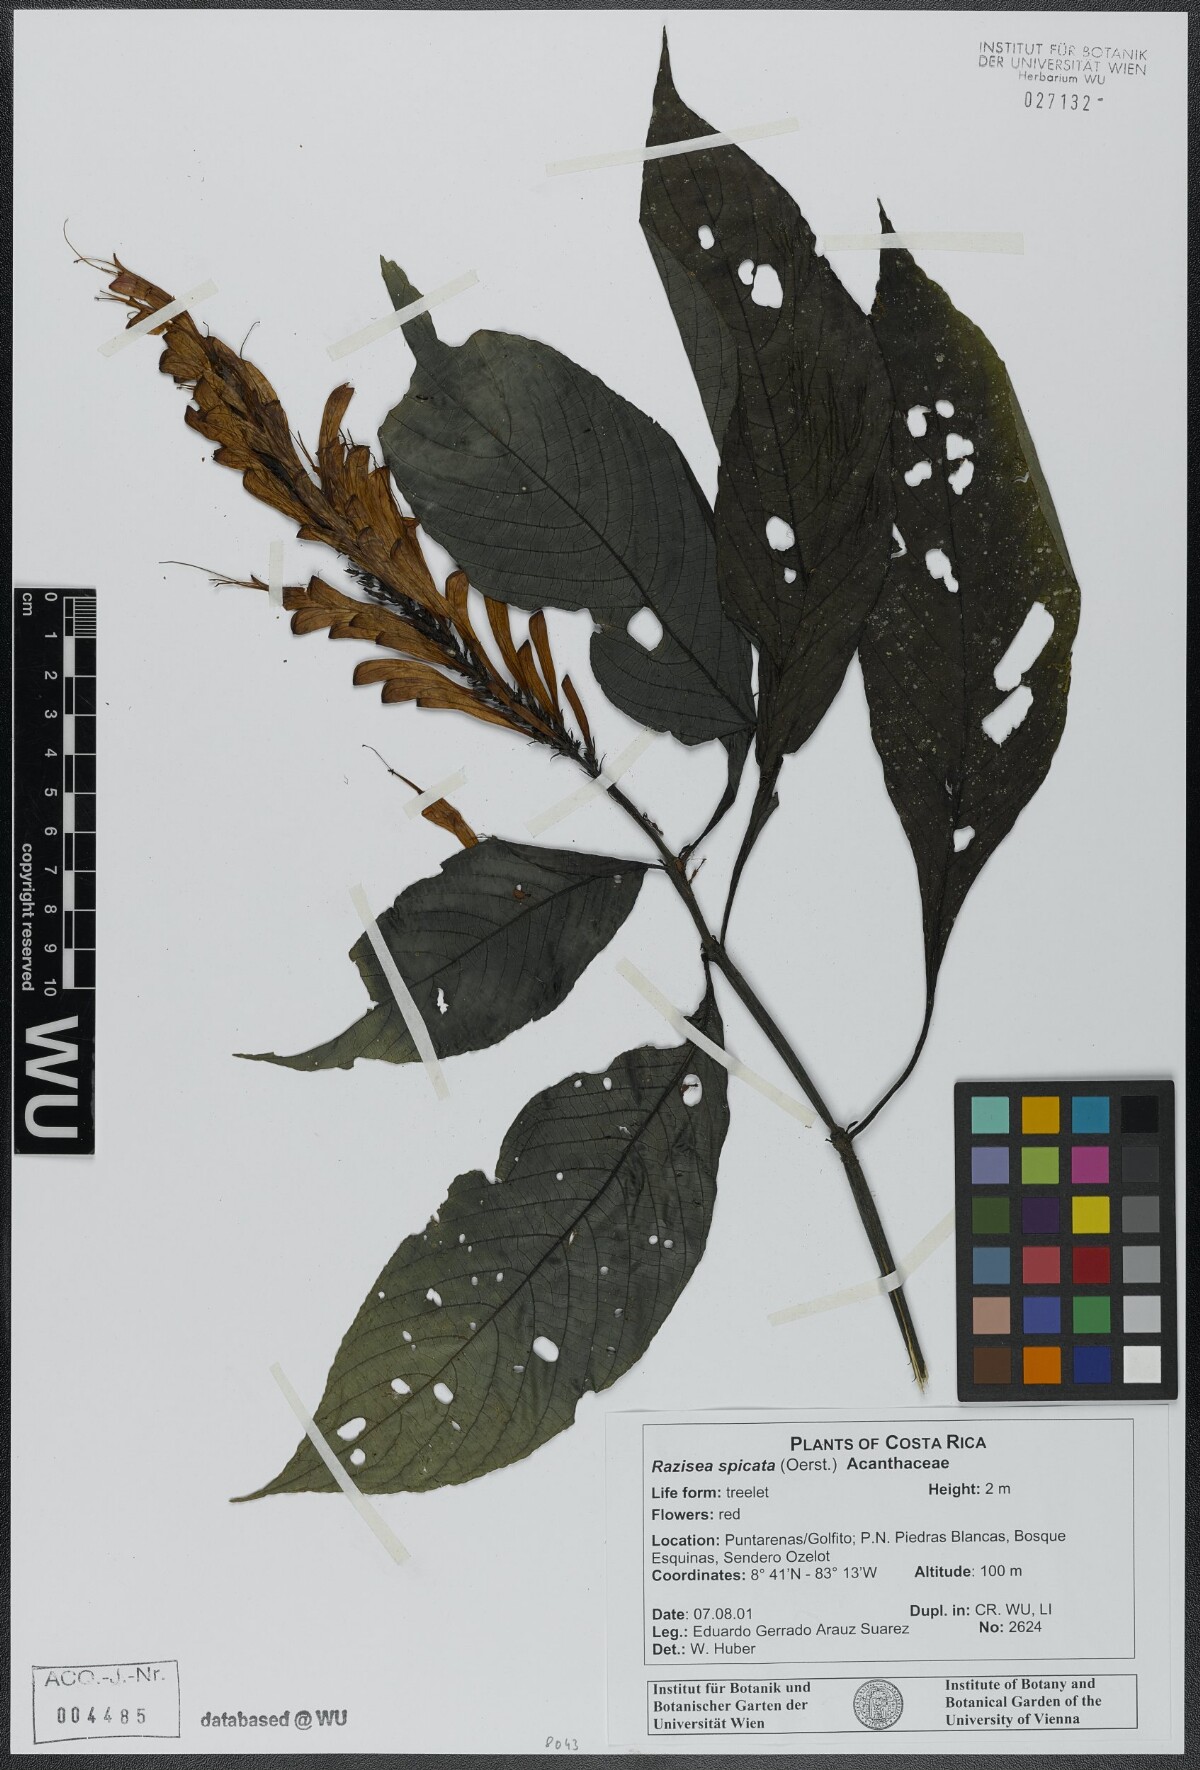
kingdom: Plantae
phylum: Tracheophyta
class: Magnoliopsida
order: Lamiales
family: Acanthaceae
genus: Stenostephanus
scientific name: Stenostephanus leiorhachis
